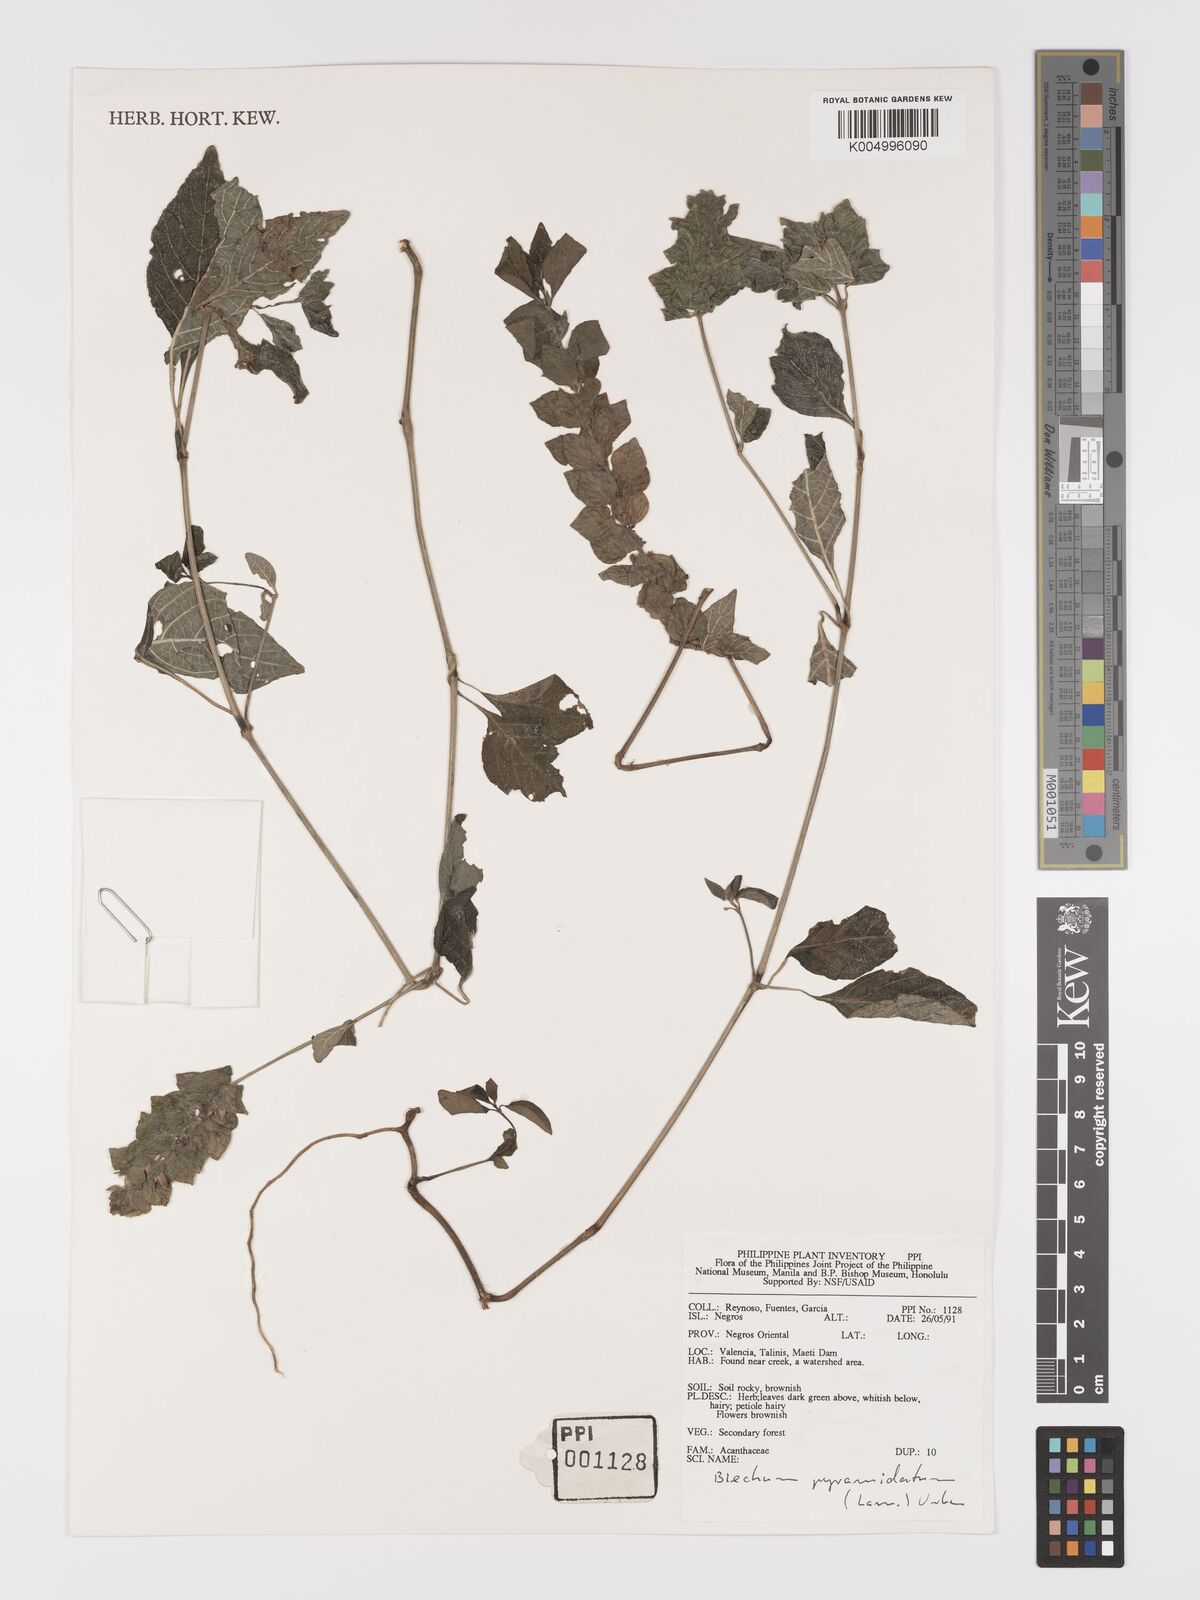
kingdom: Plantae
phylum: Tracheophyta
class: Magnoliopsida
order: Lamiales
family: Acanthaceae
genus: Ruellia
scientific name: Ruellia blechum
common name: Browne's blechum
